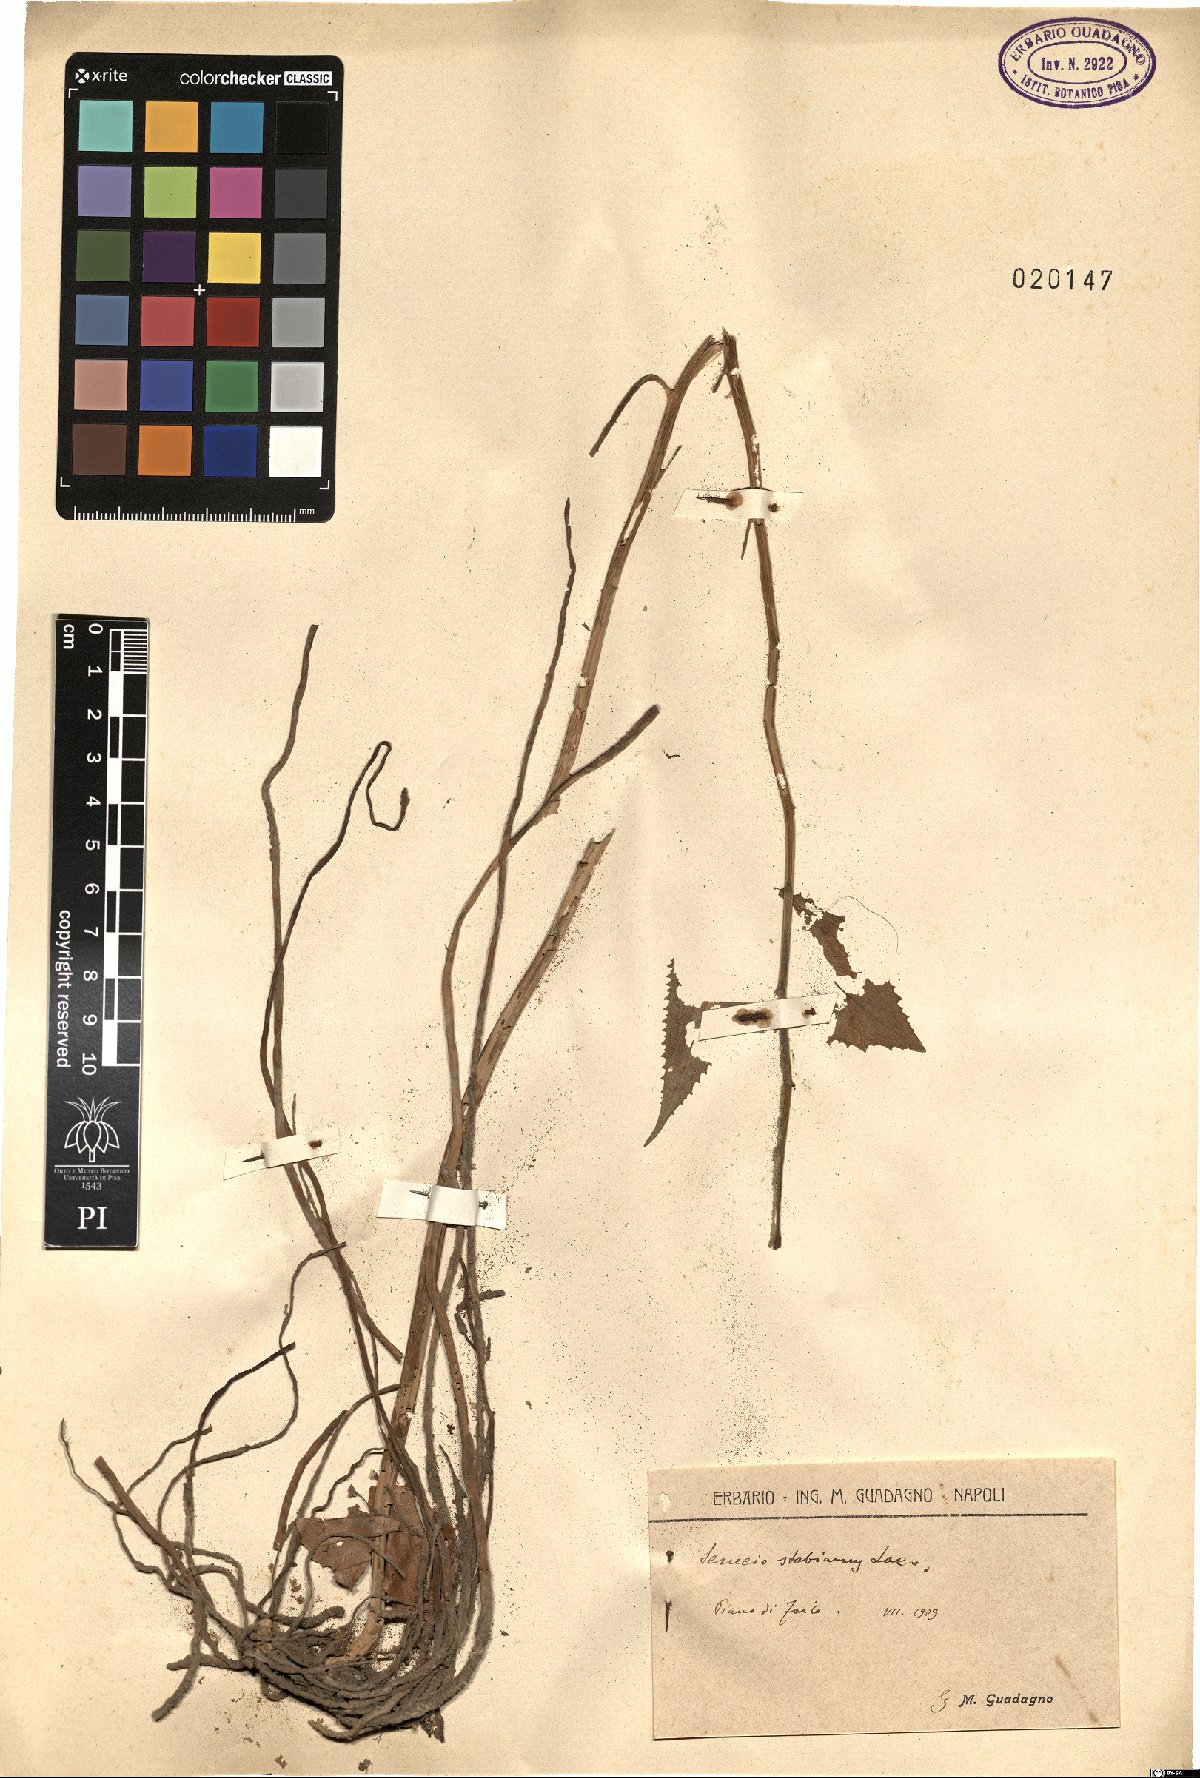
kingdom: Plantae
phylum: Tracheophyta
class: Magnoliopsida
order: Asterales
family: Asteraceae
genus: Senecio
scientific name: Senecio ovatus
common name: Wood ragwort
